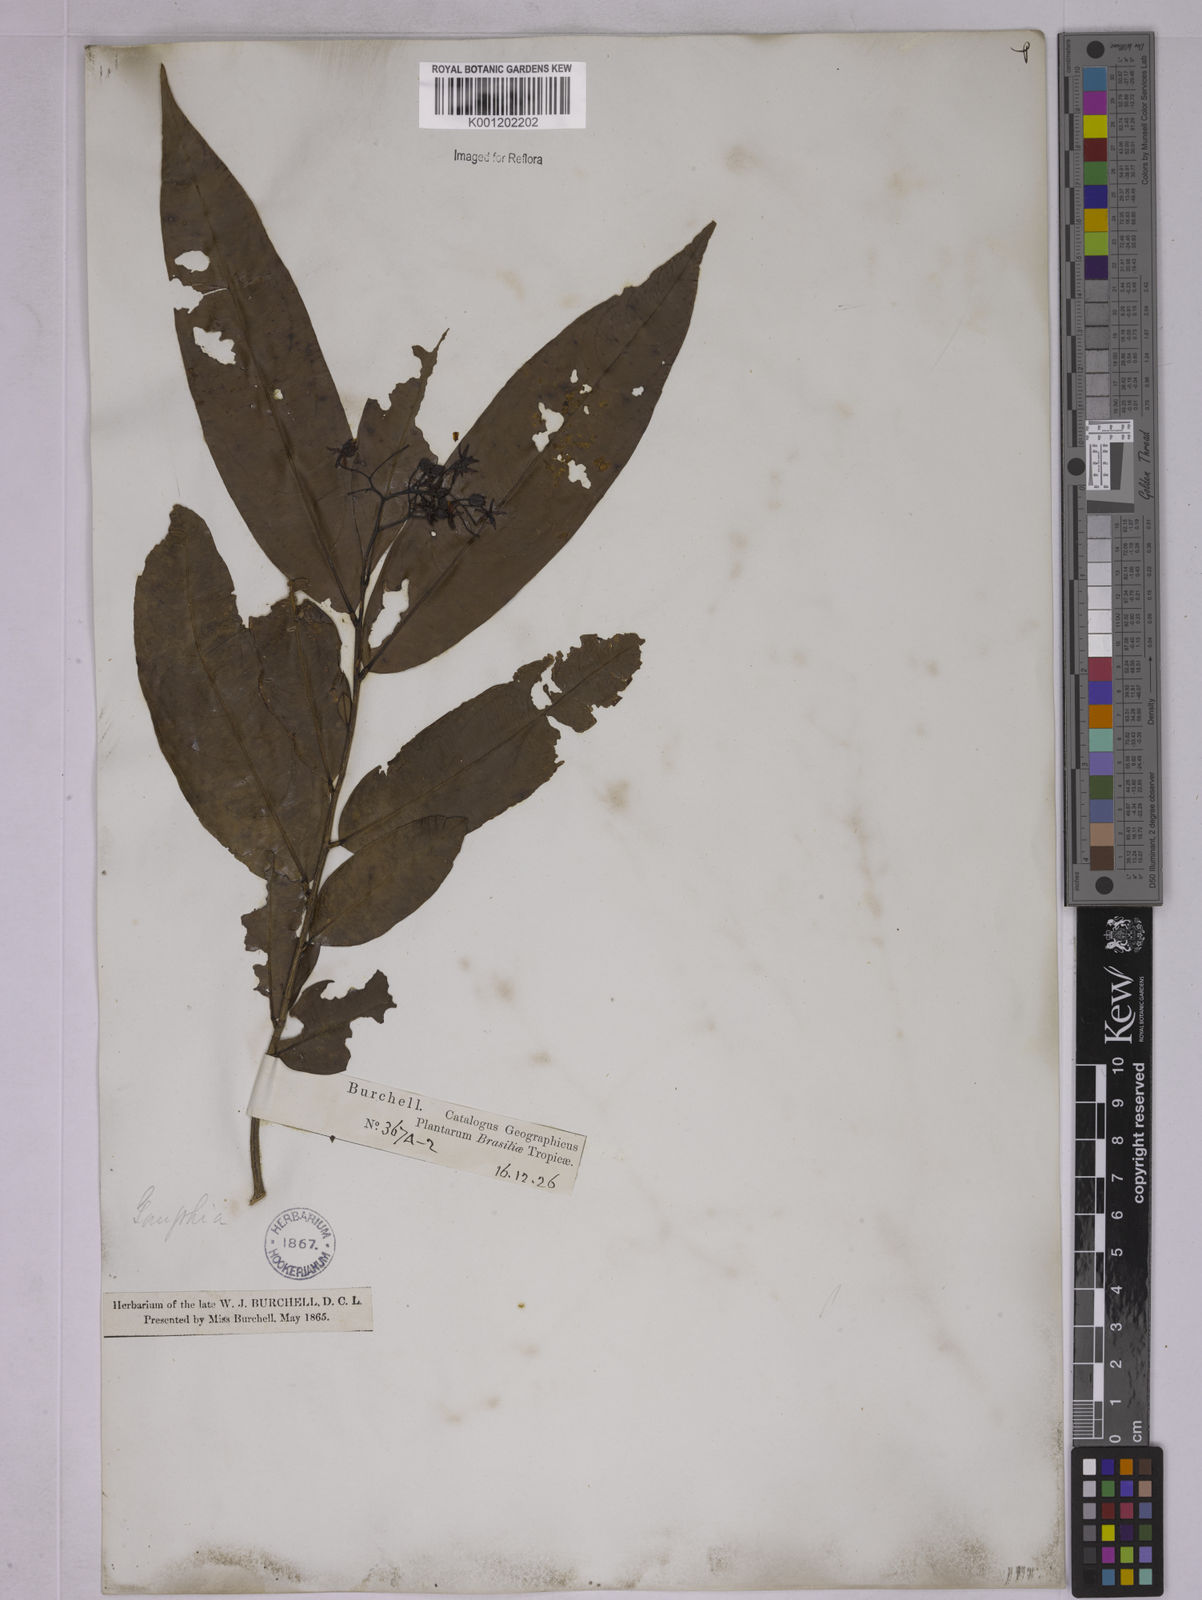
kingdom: Plantae
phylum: Tracheophyta
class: Magnoliopsida
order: Malpighiales
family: Ochnaceae
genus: Ouratea
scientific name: Ouratea
